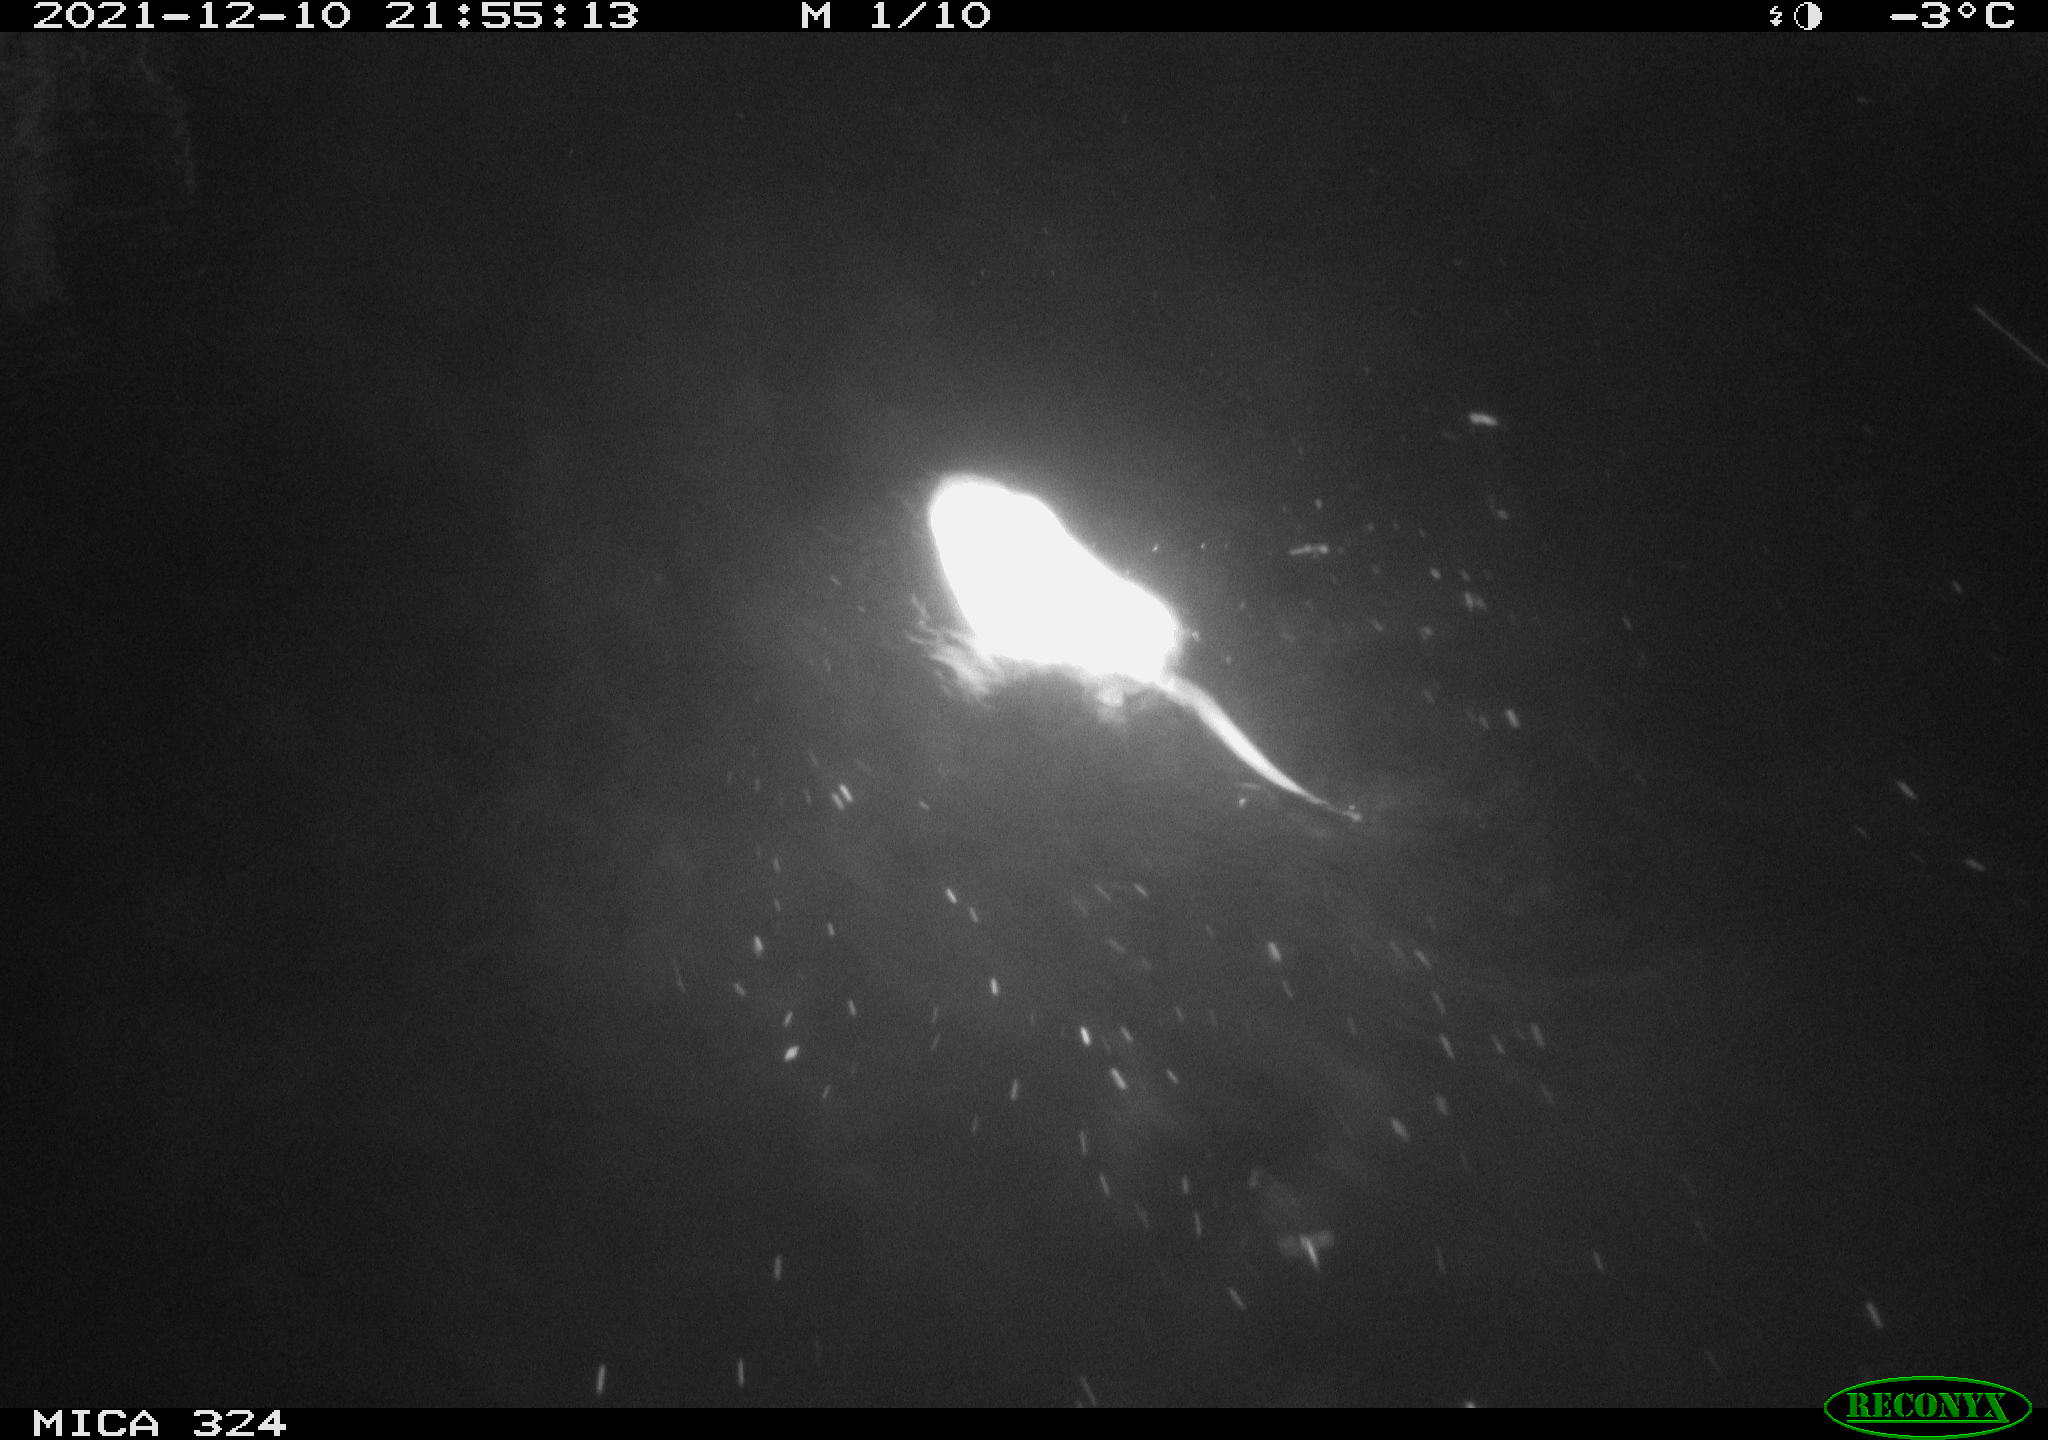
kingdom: Animalia
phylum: Chordata
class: Mammalia
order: Rodentia
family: Cricetidae
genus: Ondatra
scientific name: Ondatra zibethicus
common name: Muskrat
